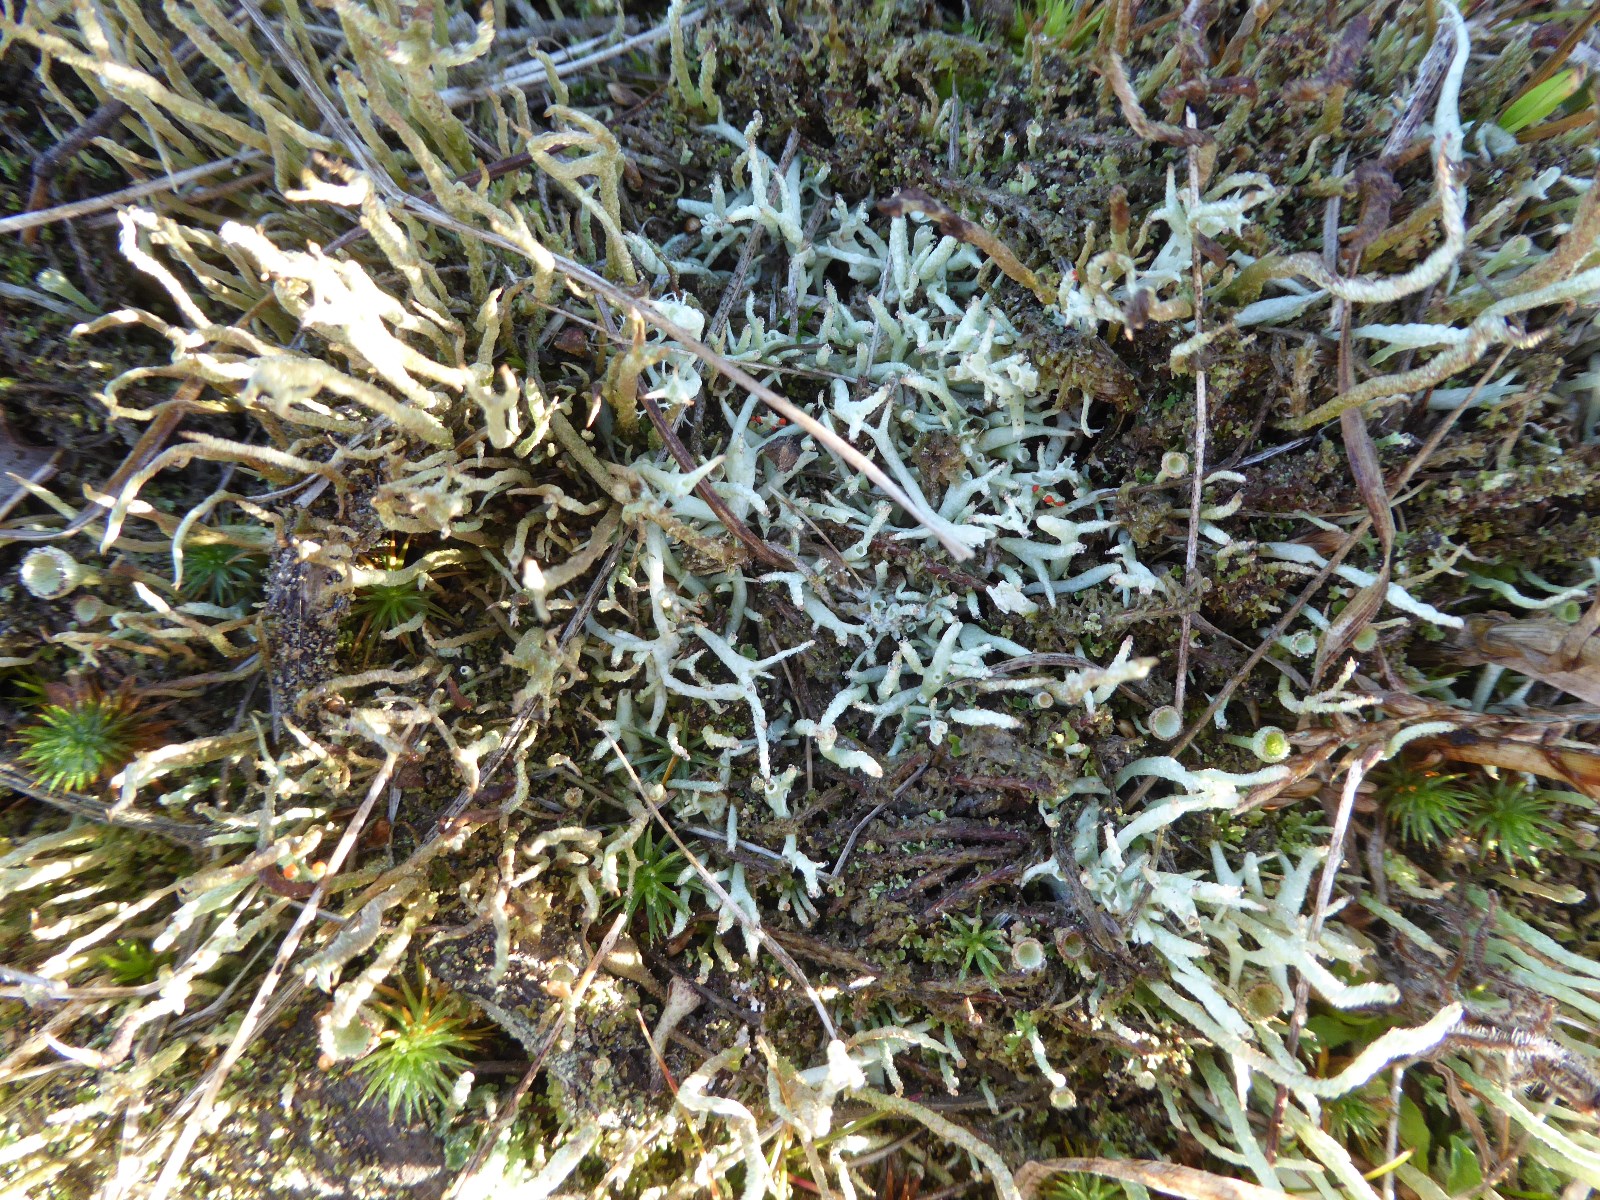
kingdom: Fungi
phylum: Ascomycota
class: Lecanoromycetes
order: Lecanorales
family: Cladoniaceae
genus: Cladonia
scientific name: Cladonia uncialis
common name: pigget bægerlav
